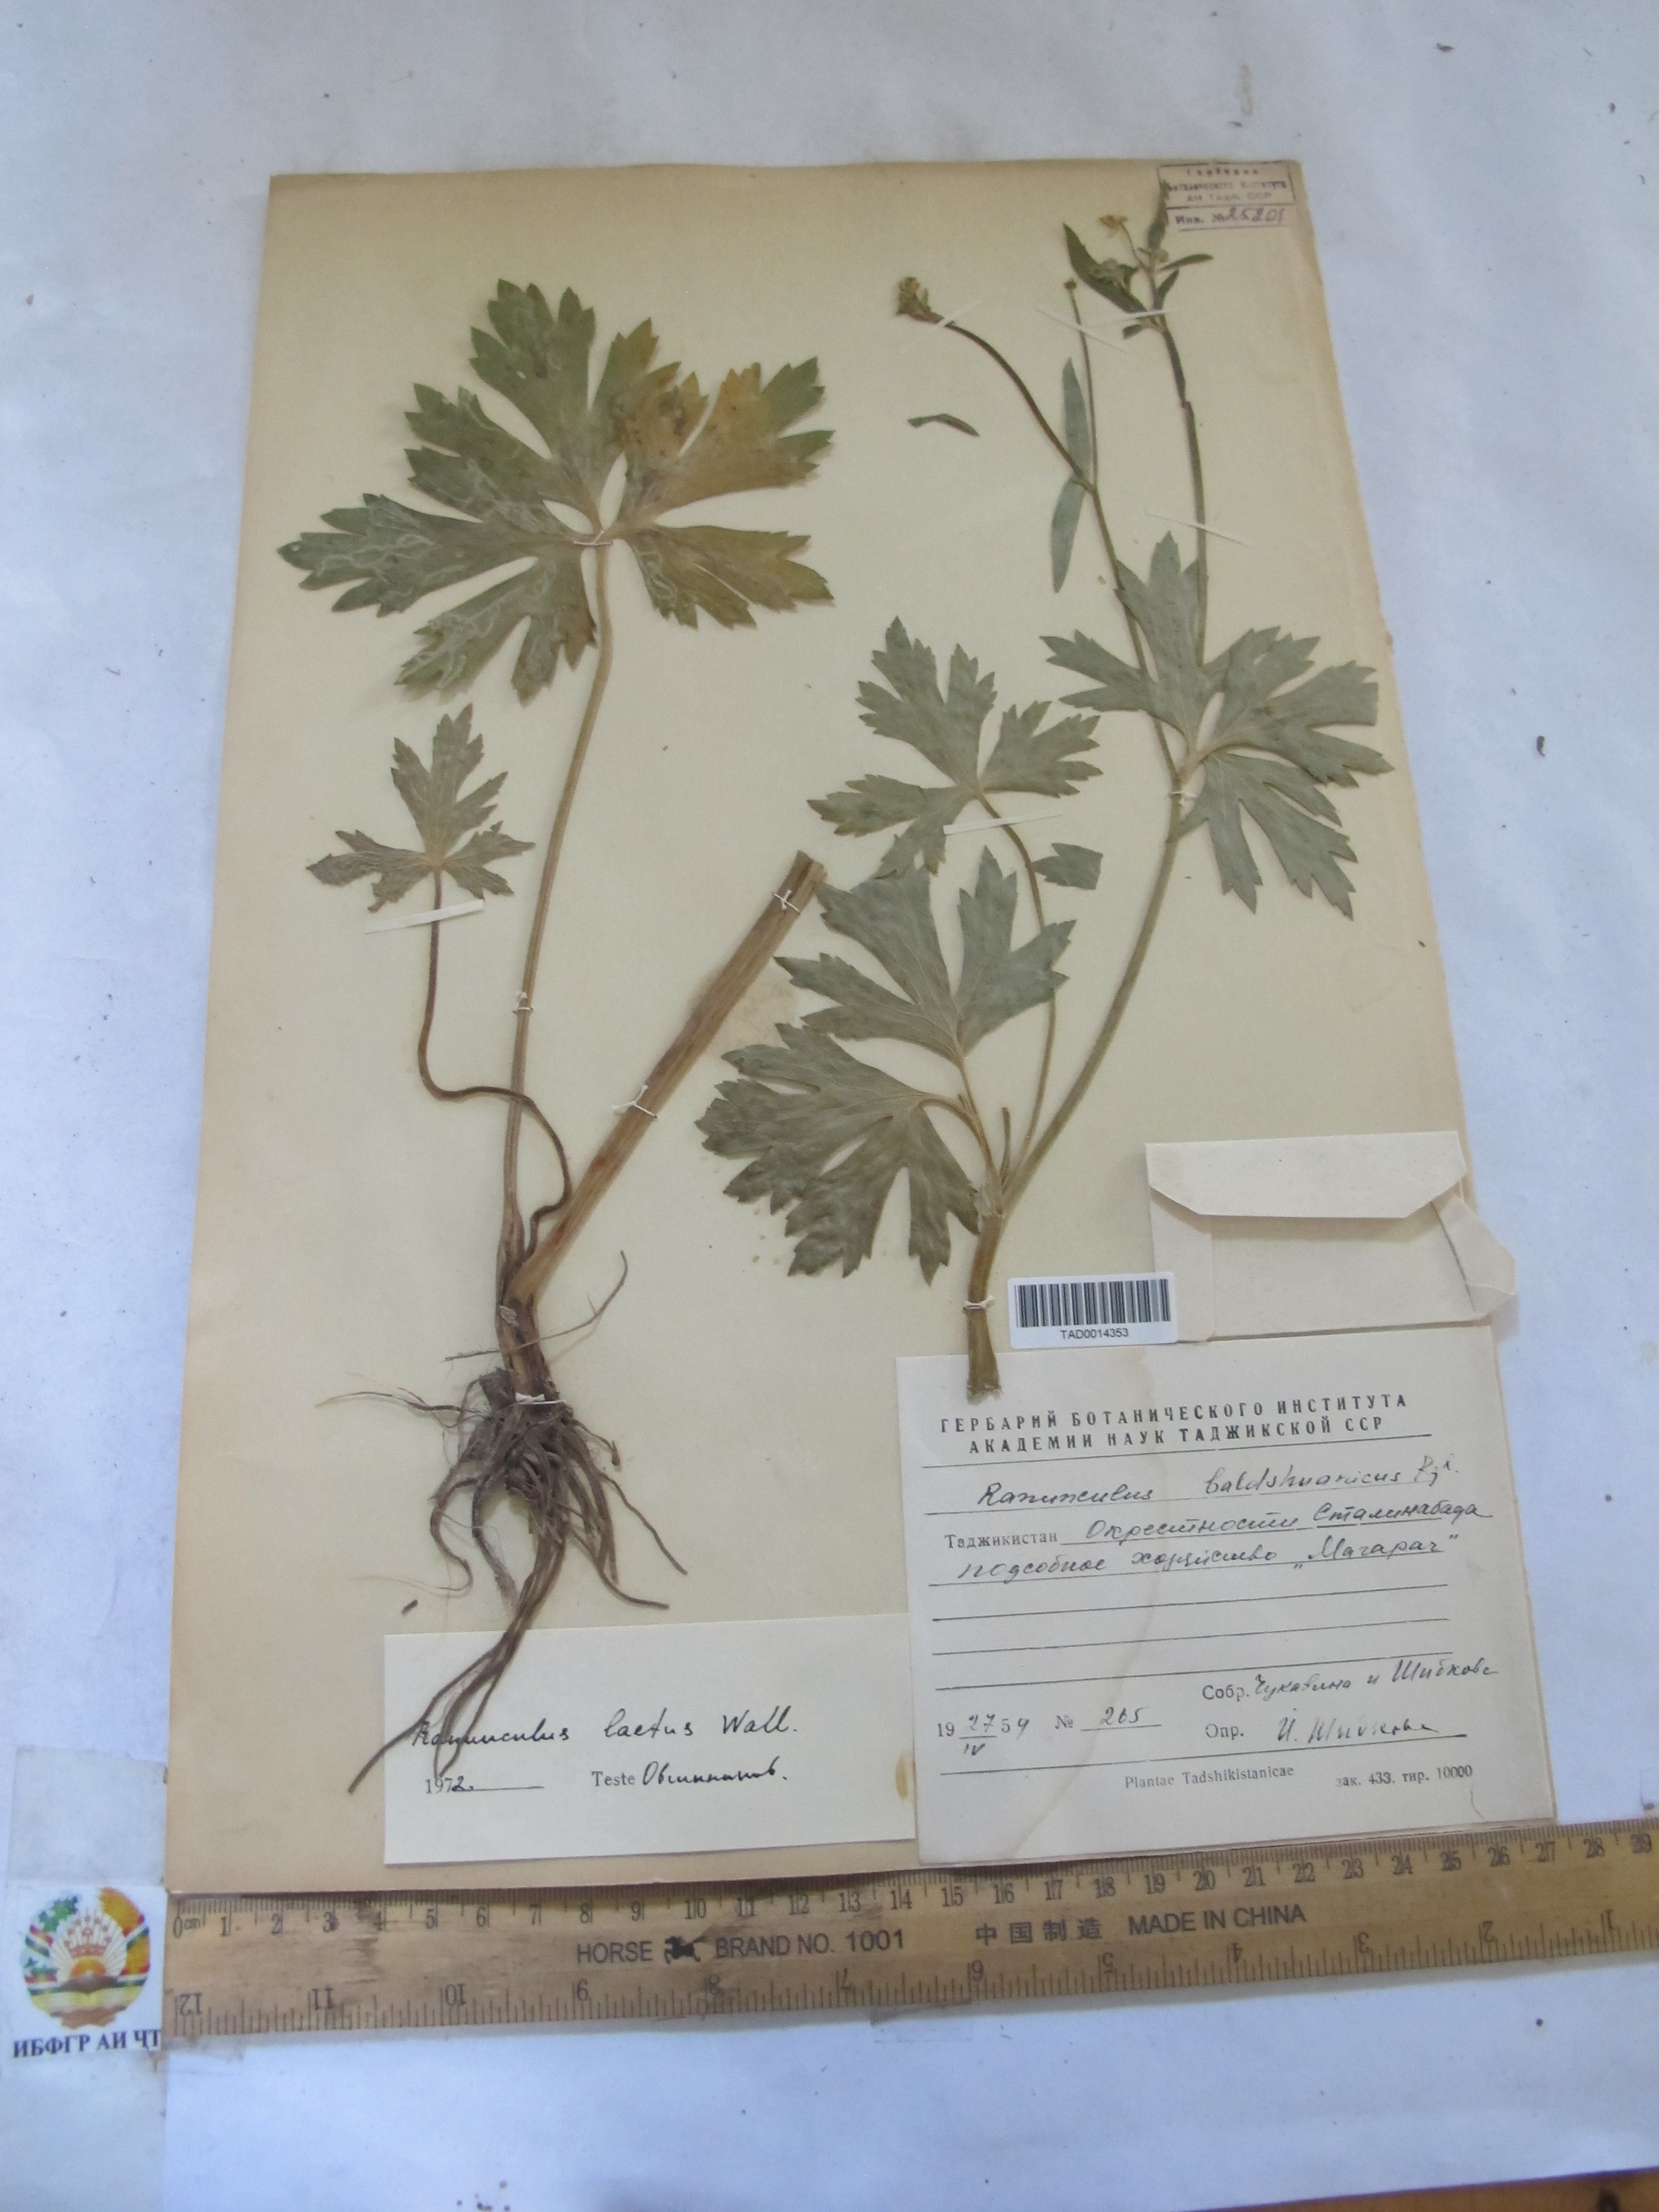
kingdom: Plantae
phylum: Tracheophyta
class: Magnoliopsida
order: Ranunculales
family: Ranunculaceae
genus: Ranunculus
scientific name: Ranunculus distans
